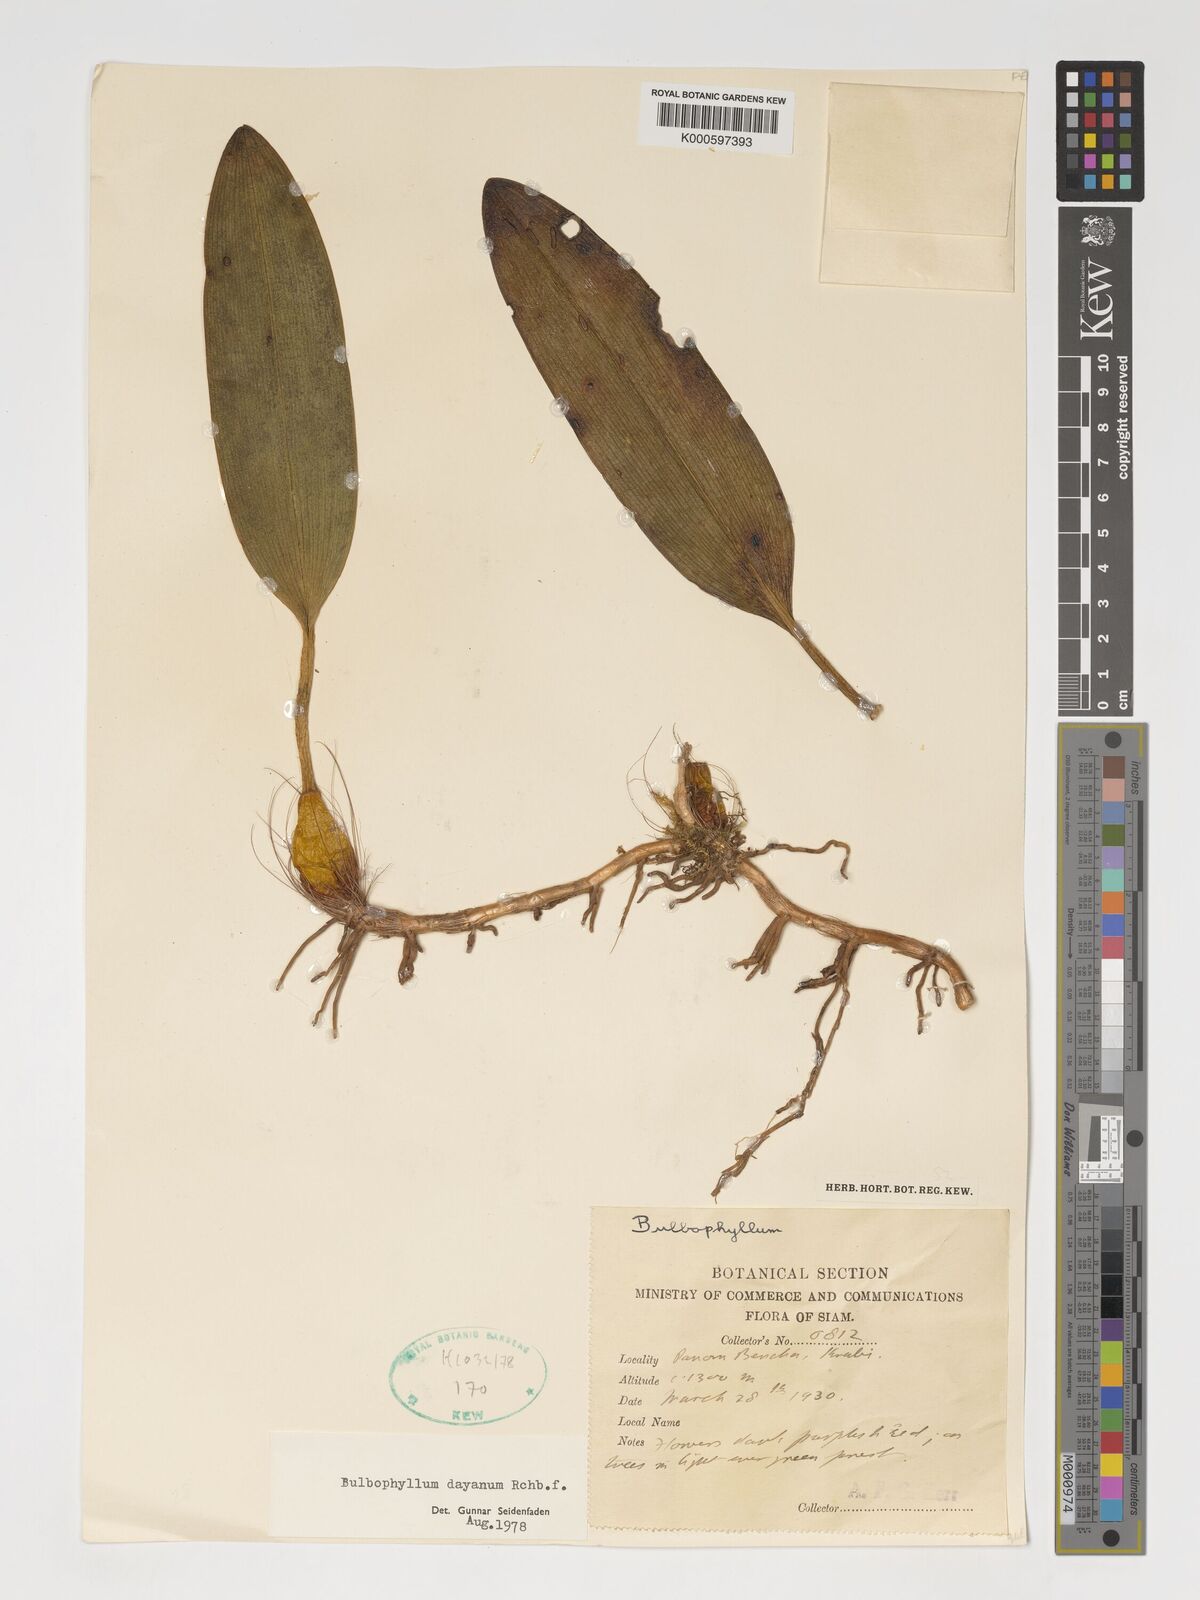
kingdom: Plantae
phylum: Tracheophyta
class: Liliopsida
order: Asparagales
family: Orchidaceae
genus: Bulbophyllum
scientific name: Bulbophyllum dayanum
